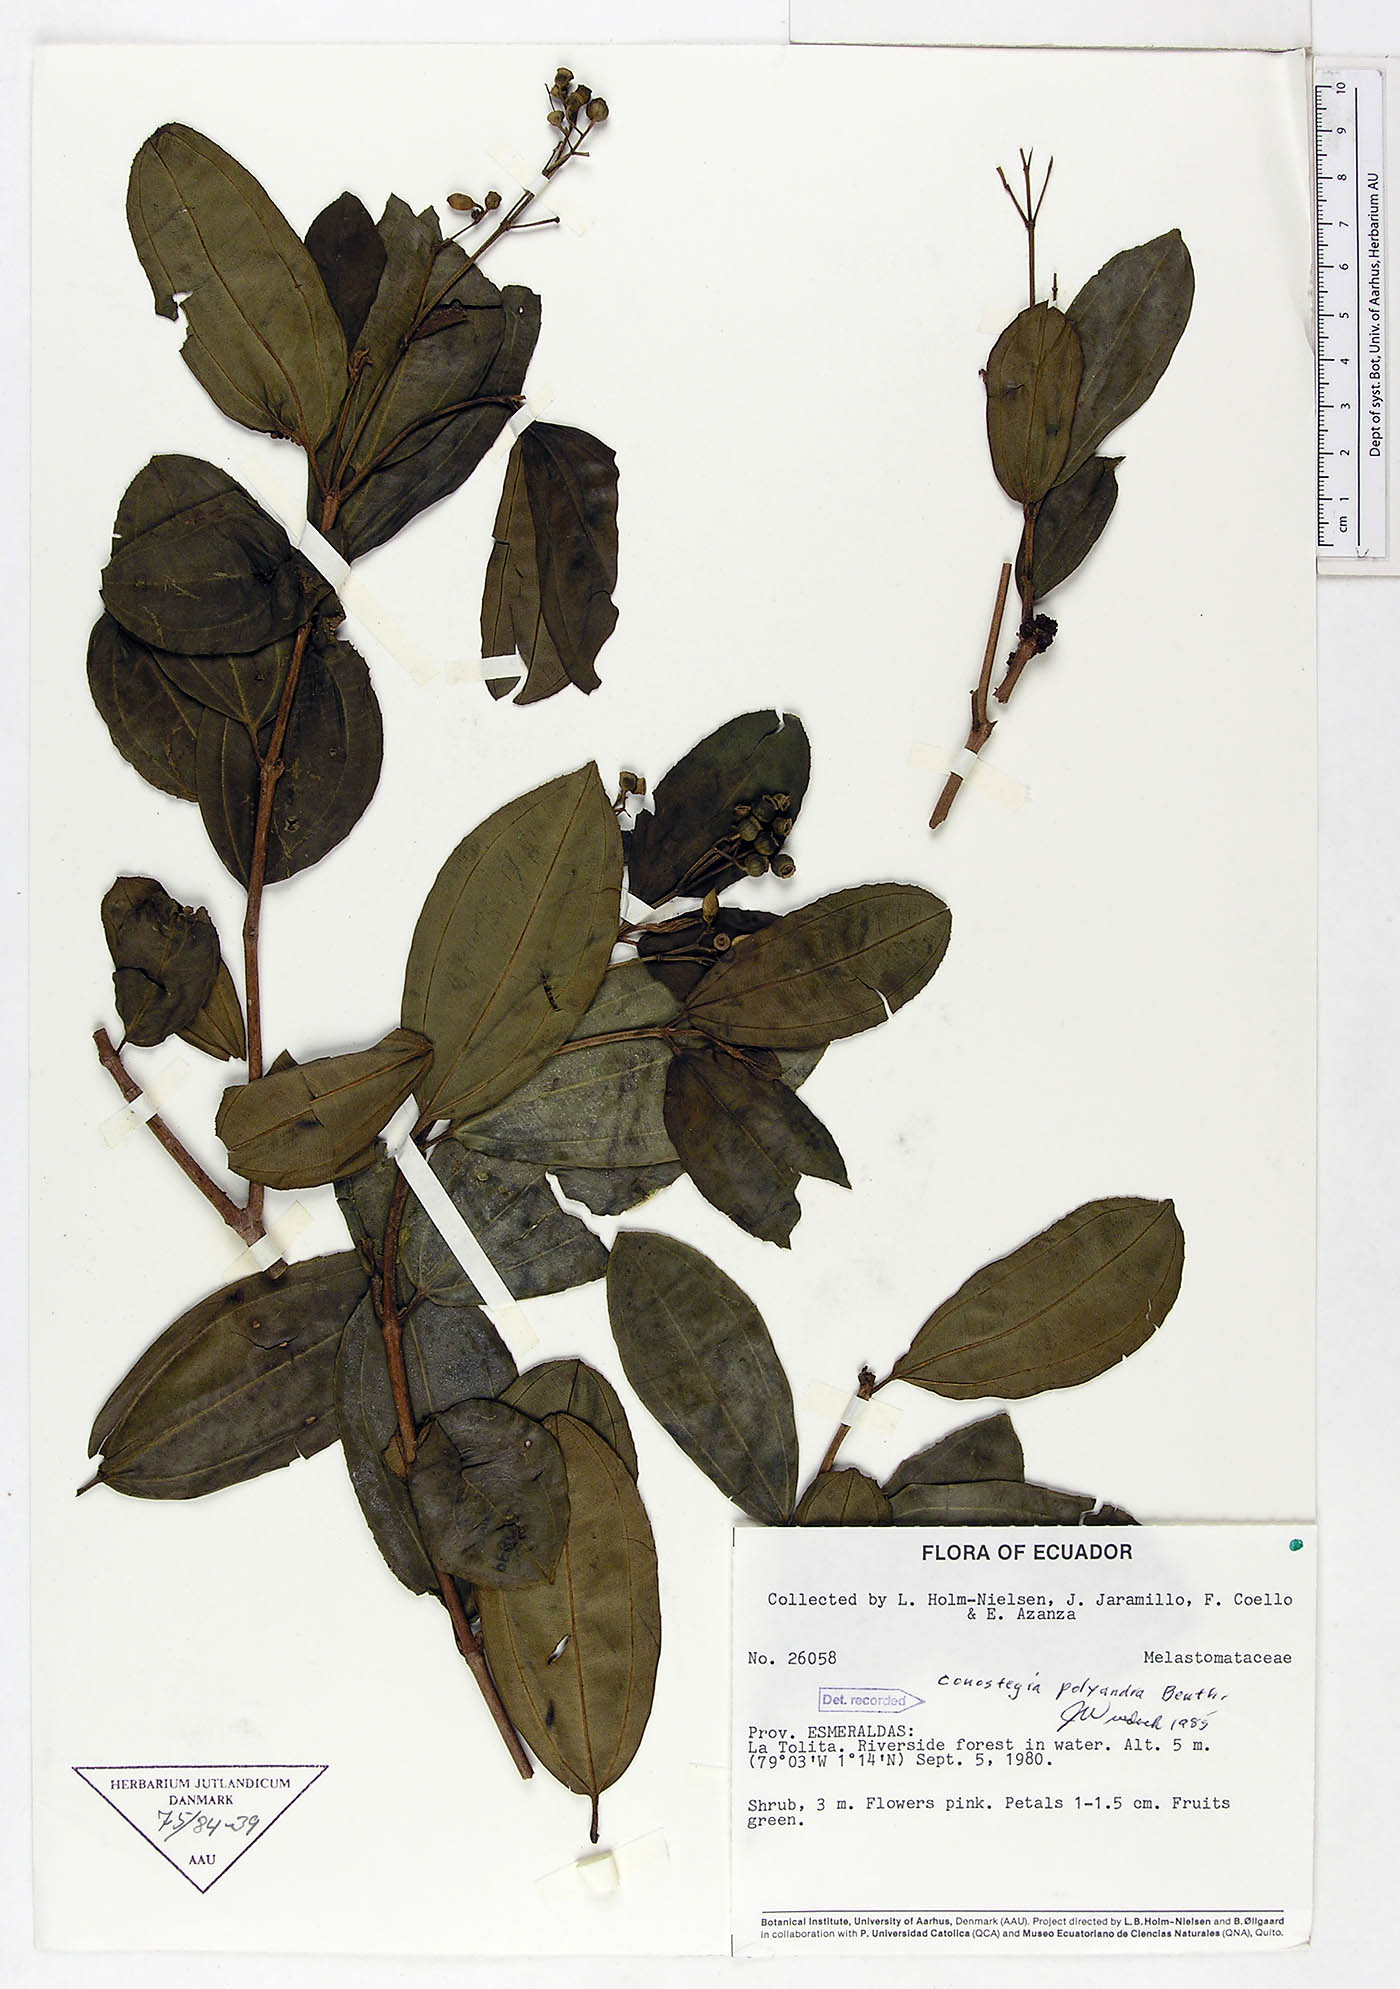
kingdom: Plantae
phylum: Tracheophyta
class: Magnoliopsida
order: Myrtales
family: Melastomataceae
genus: Miconia
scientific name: Miconia rupicola
